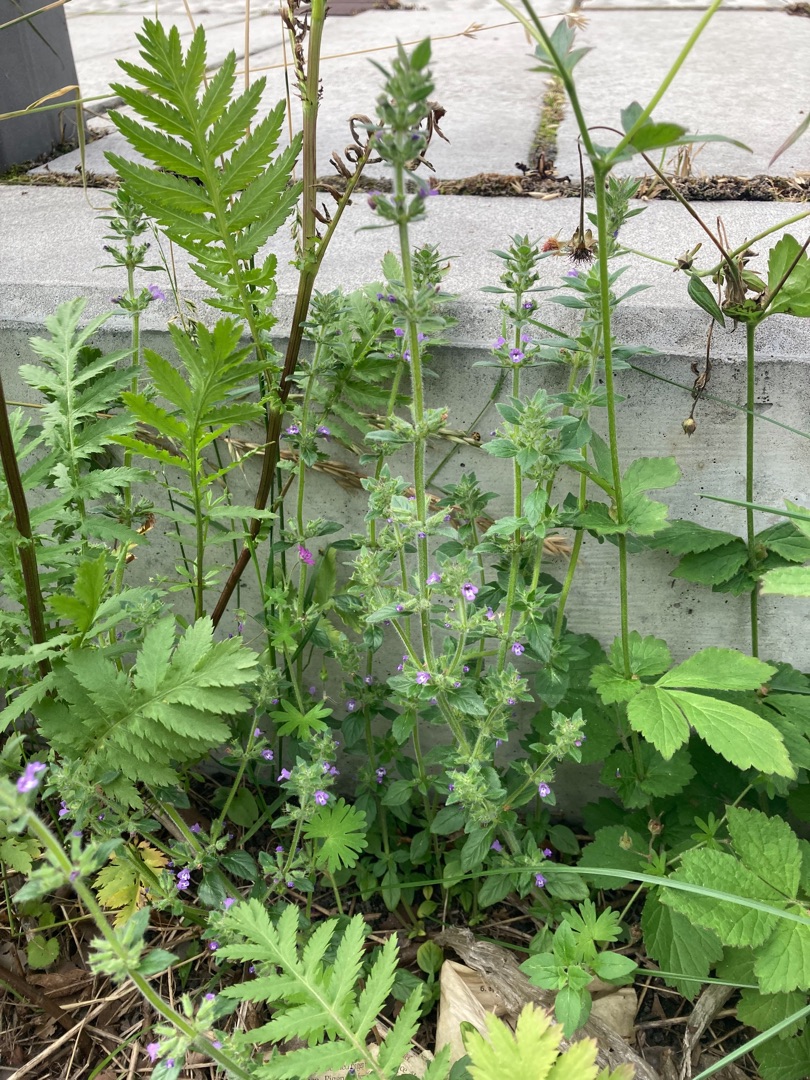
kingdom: Plantae
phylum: Tracheophyta
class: Magnoliopsida
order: Lamiales
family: Lamiaceae
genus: Clinopodium
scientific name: Clinopodium acinos
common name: Voldtimian
